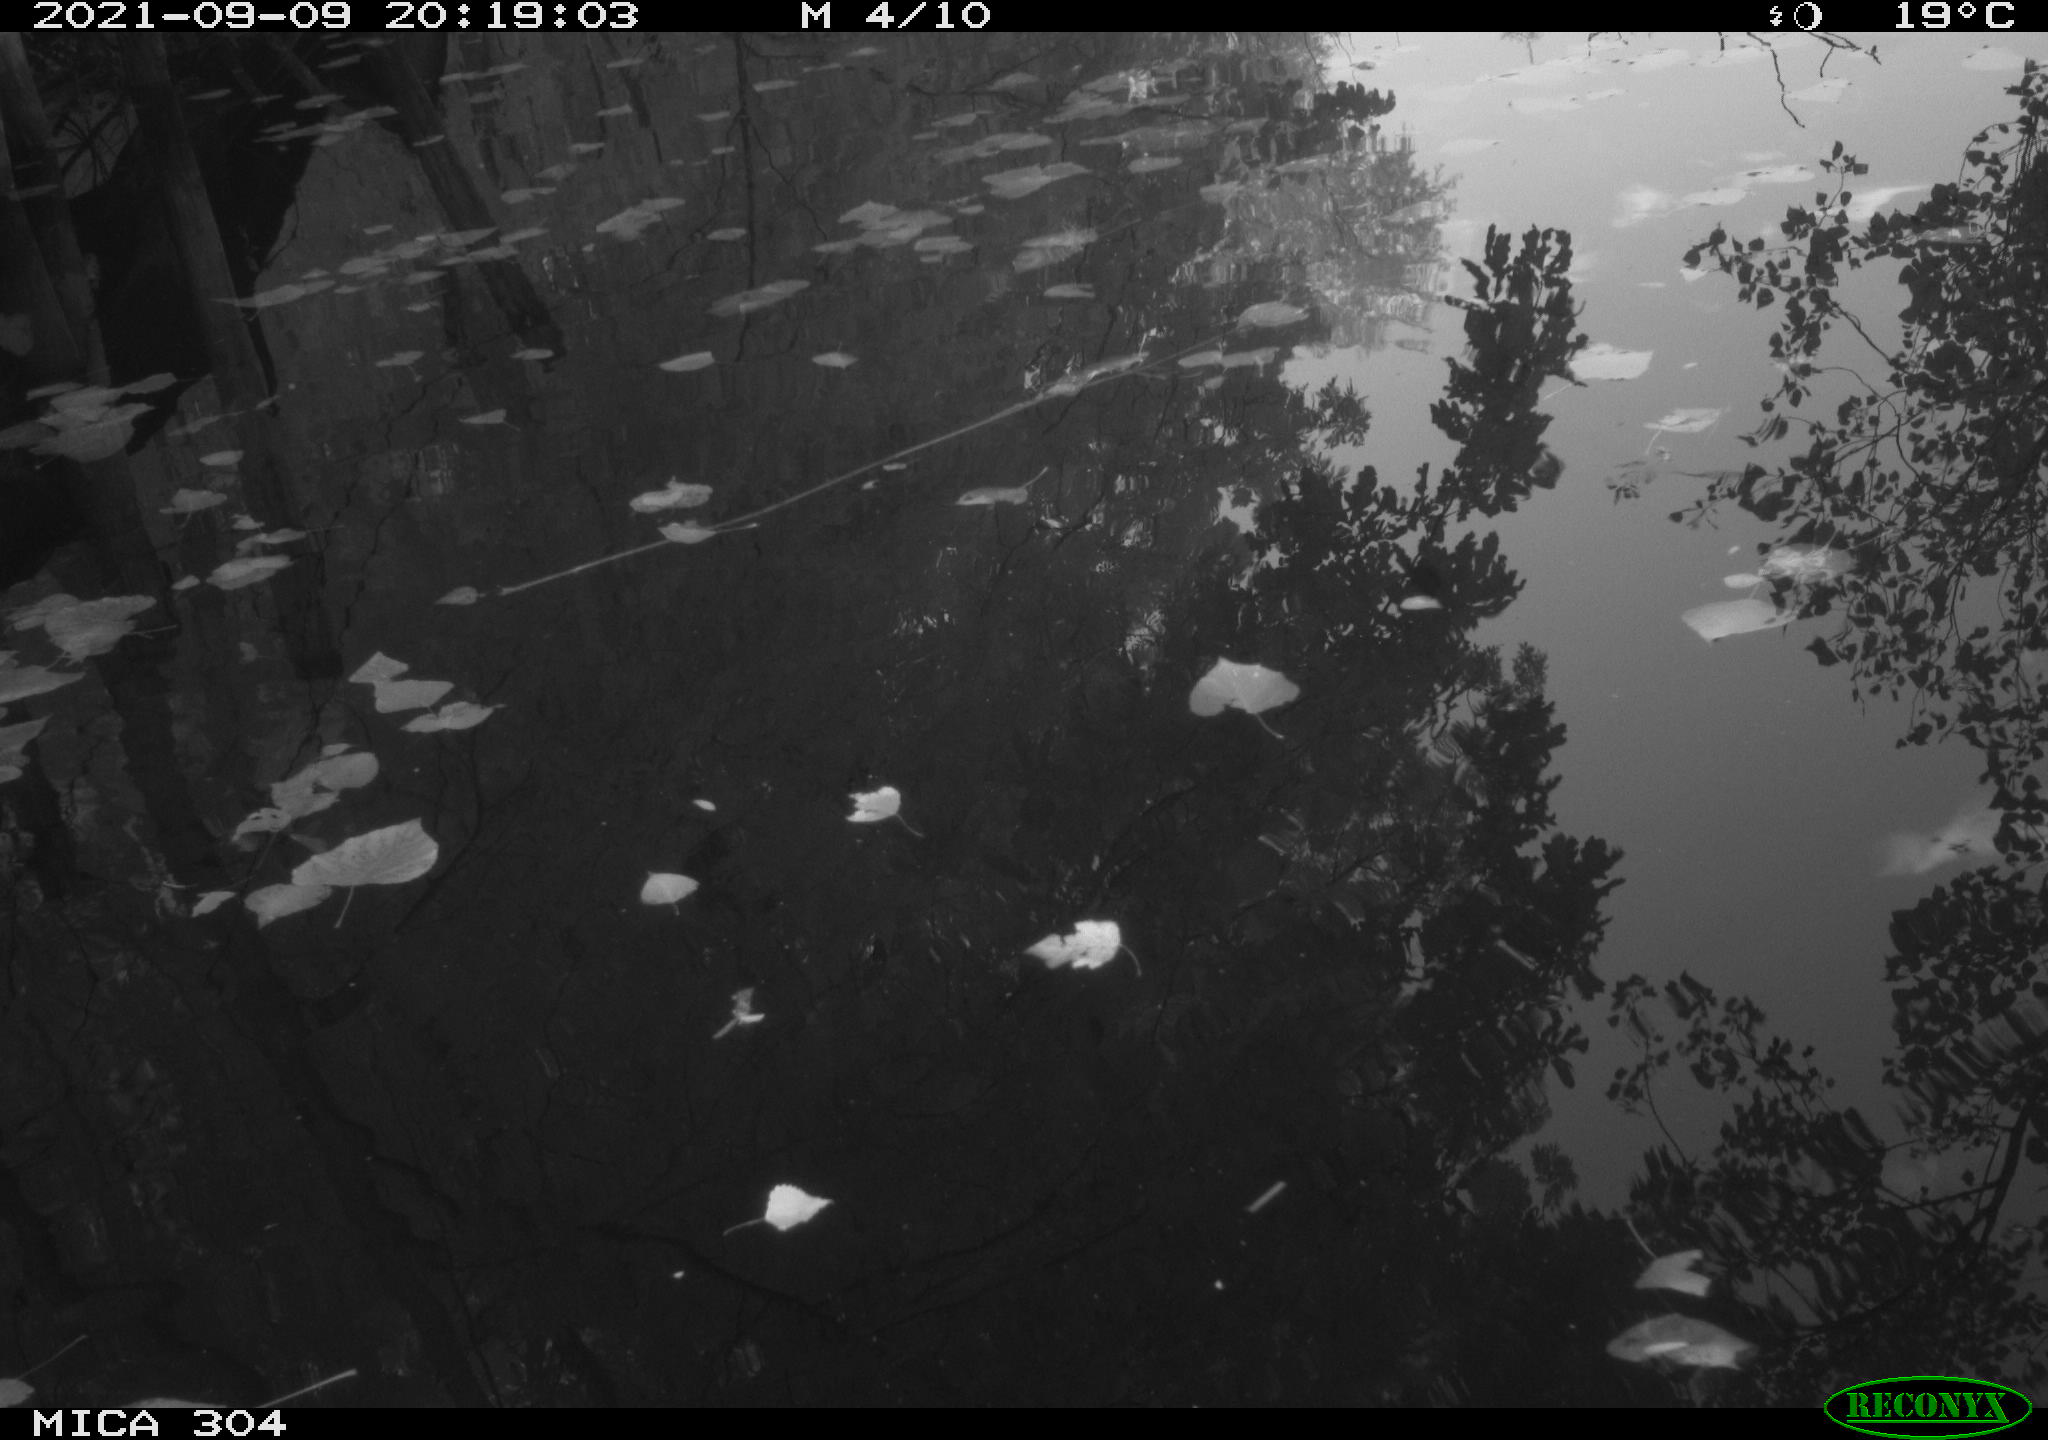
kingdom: Animalia
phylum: Chordata
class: Aves
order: Gruiformes
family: Rallidae
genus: Gallinula
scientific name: Gallinula chloropus
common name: Common moorhen
